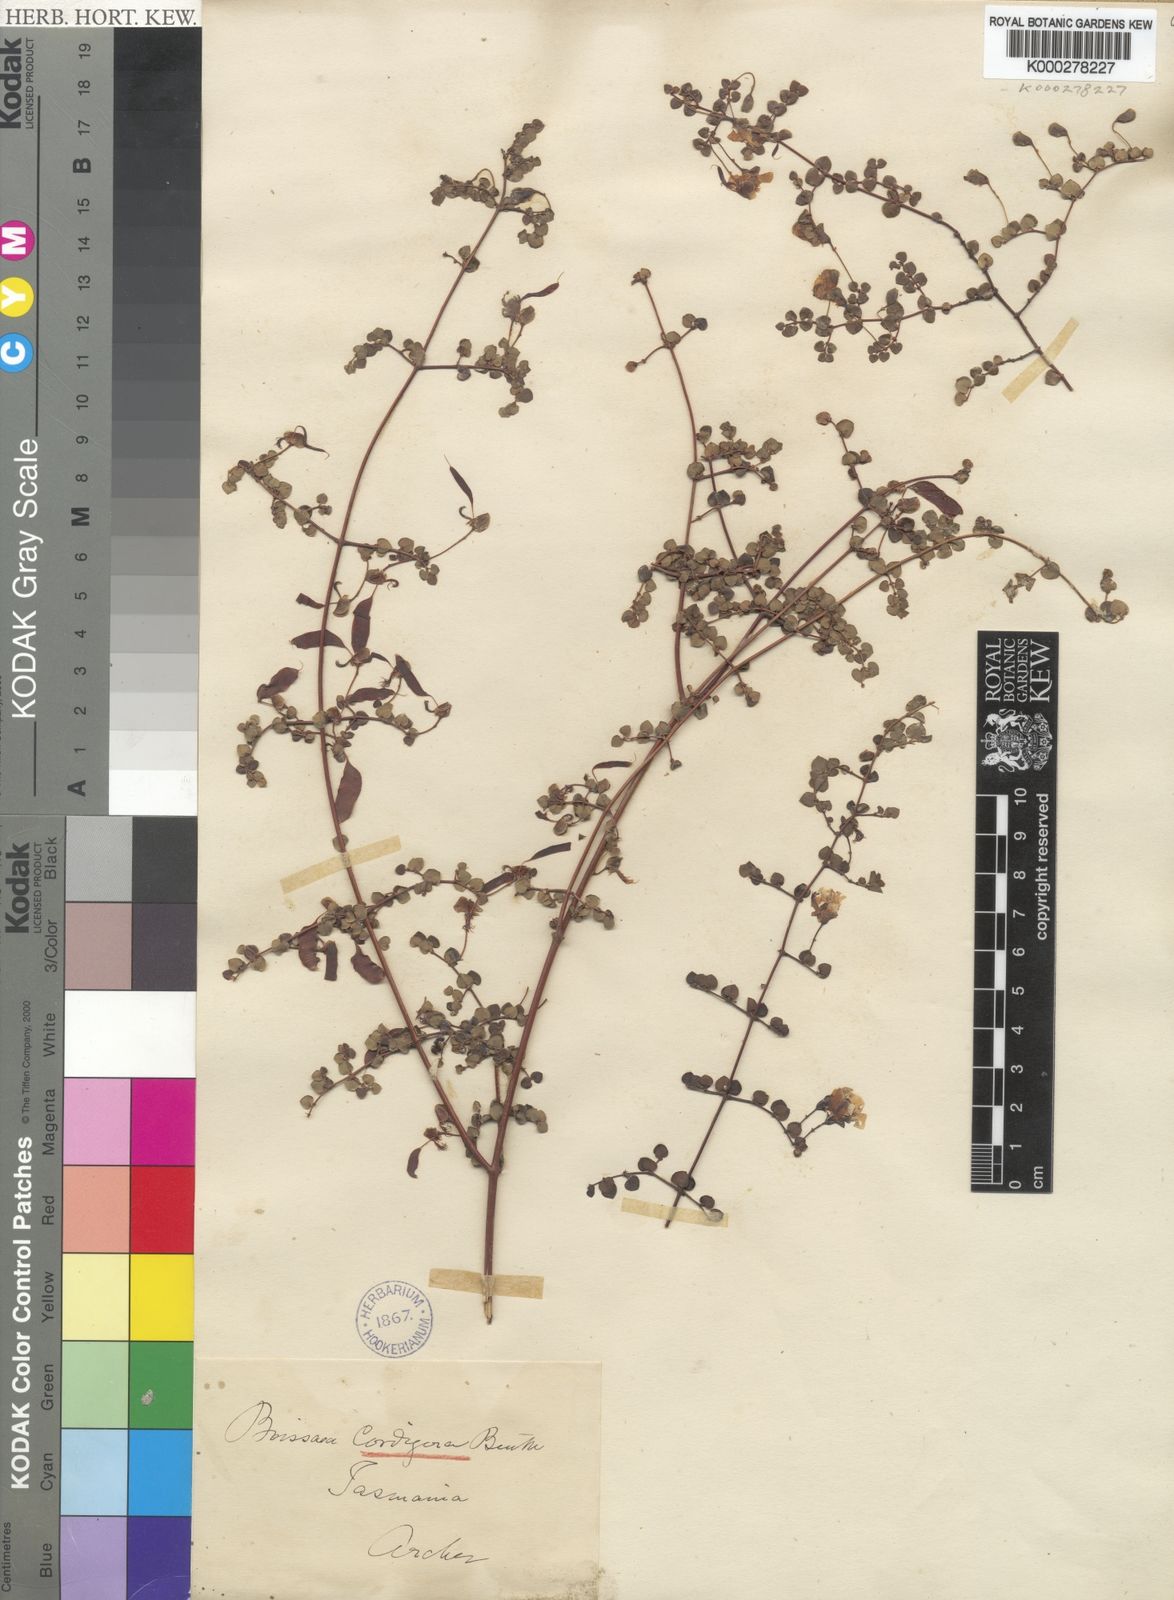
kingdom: Plantae
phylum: Tracheophyta
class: Magnoliopsida
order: Fabales
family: Fabaceae
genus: Bossiaea
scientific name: Bossiaea hendersonii
